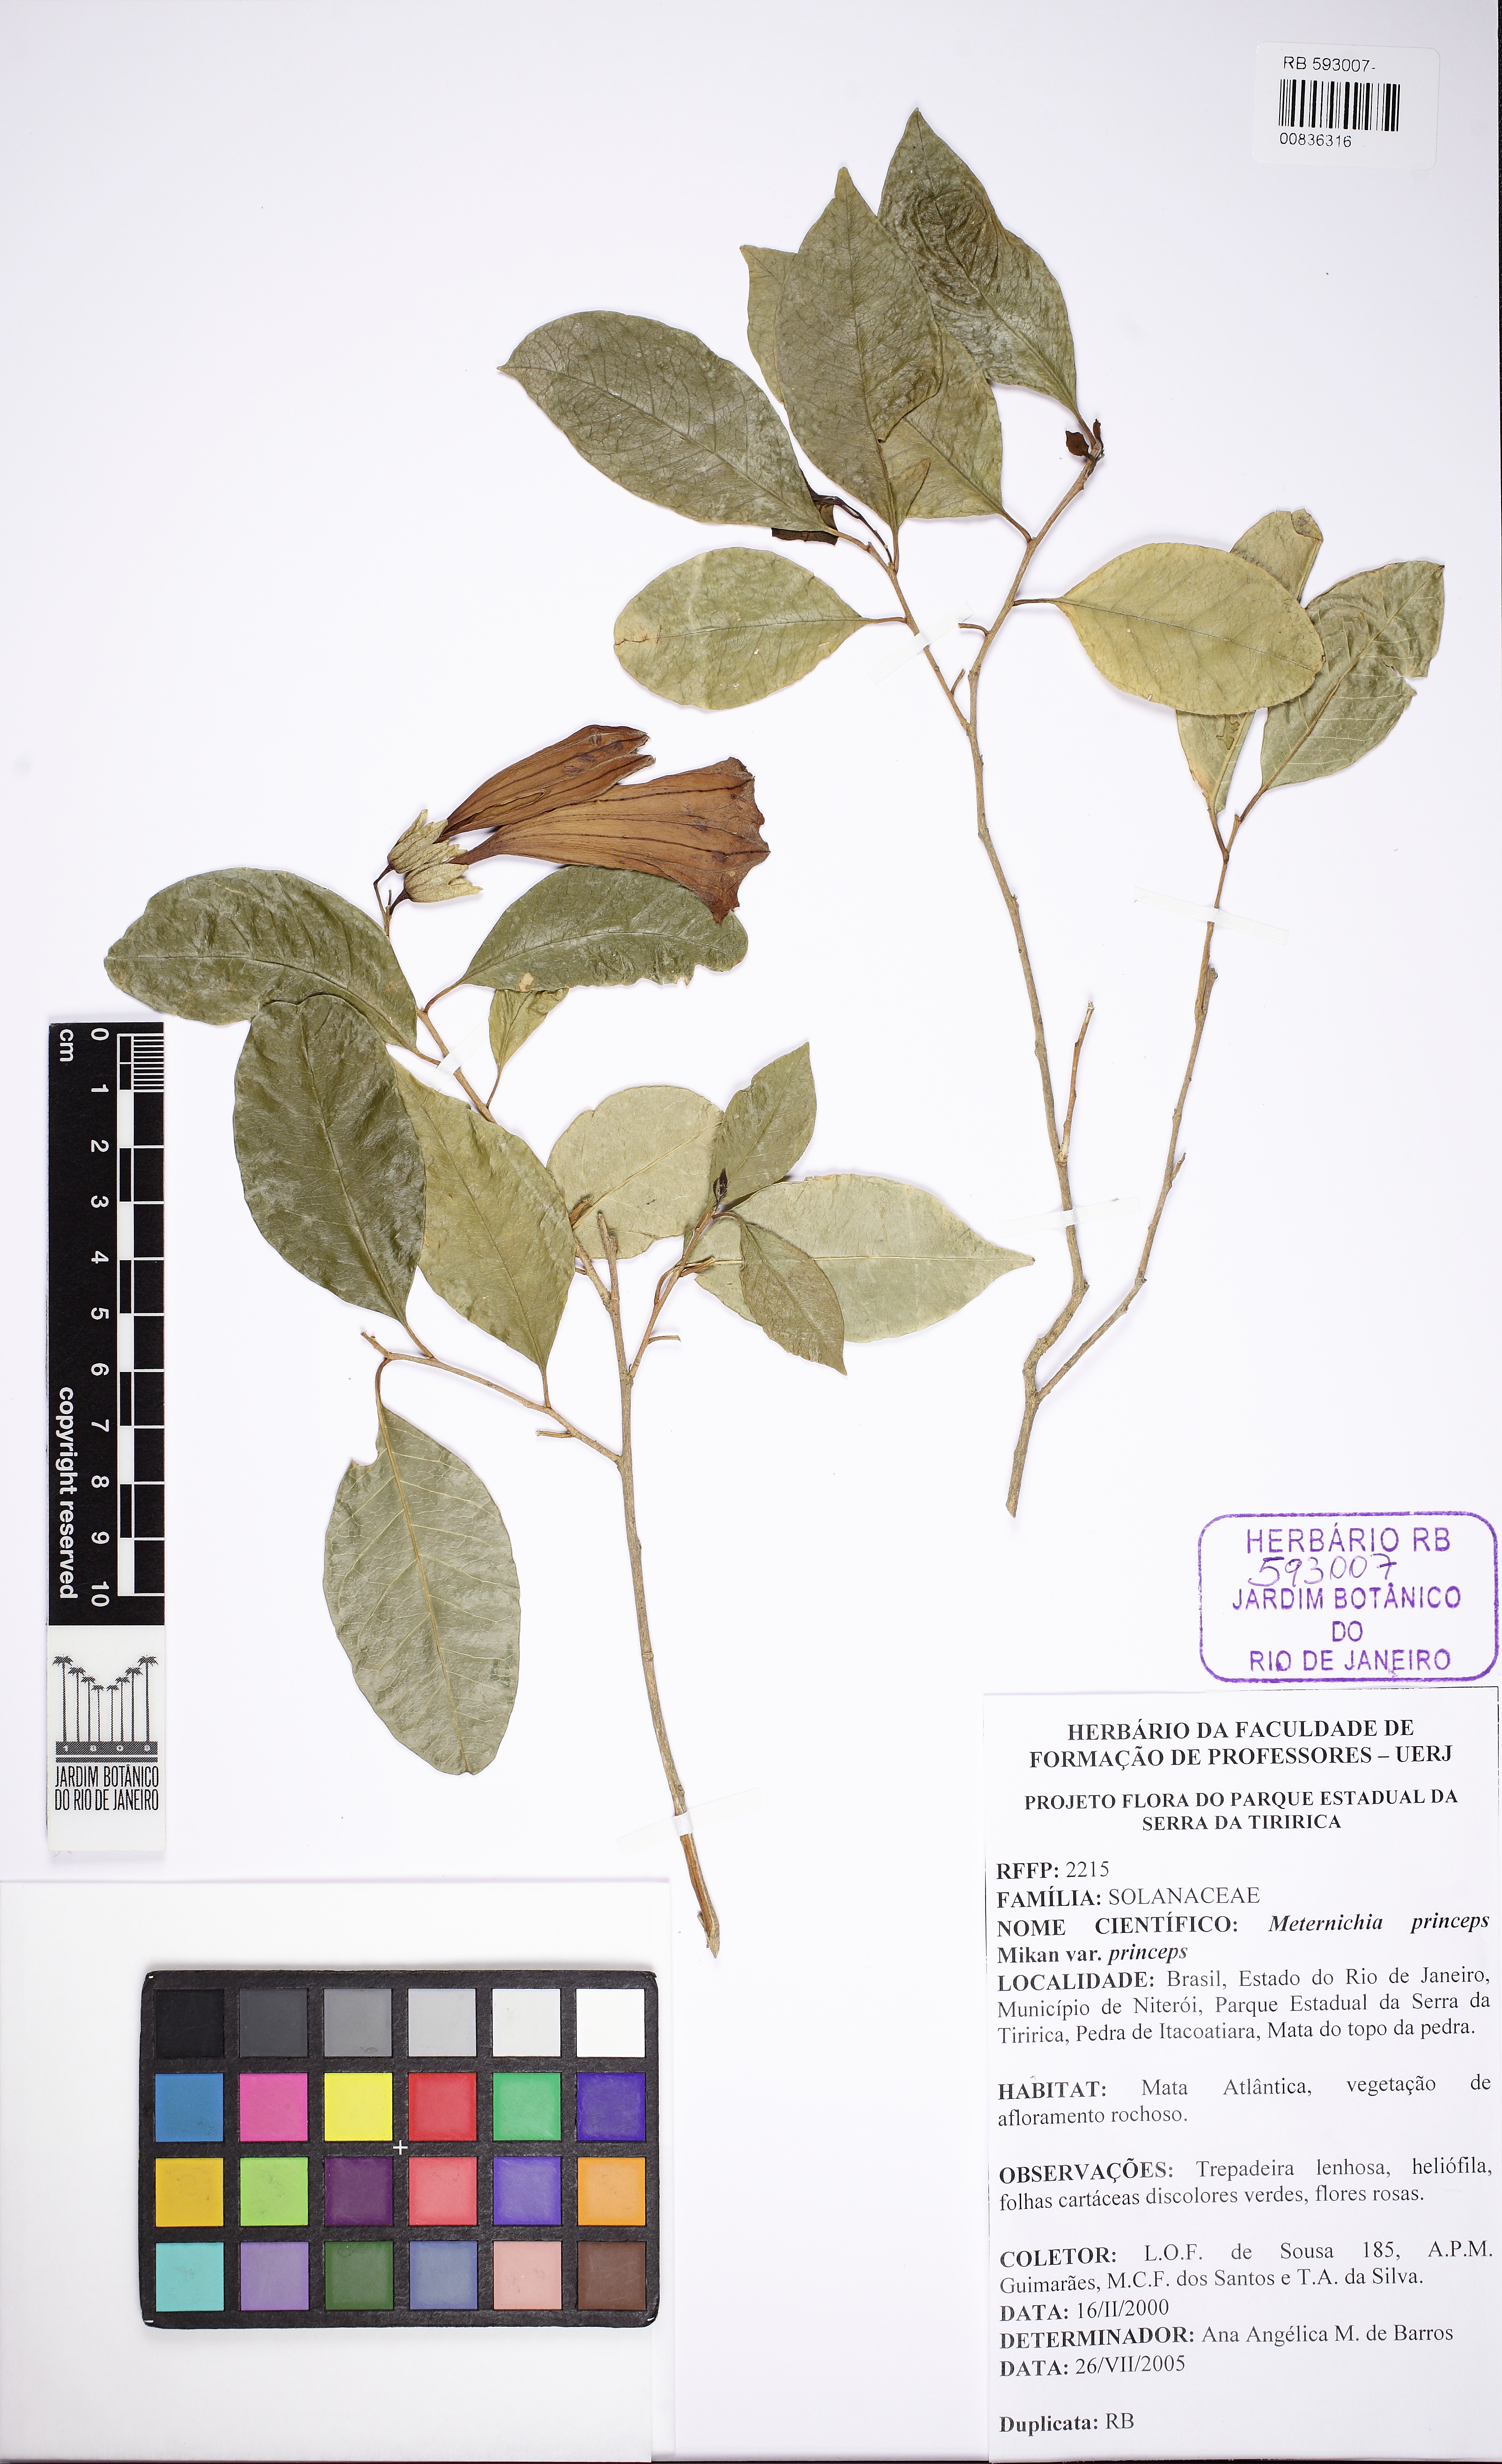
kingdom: Plantae
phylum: Tracheophyta
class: Magnoliopsida
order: Solanales
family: Solanaceae
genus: Metternichia
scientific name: Metternichia princeps
